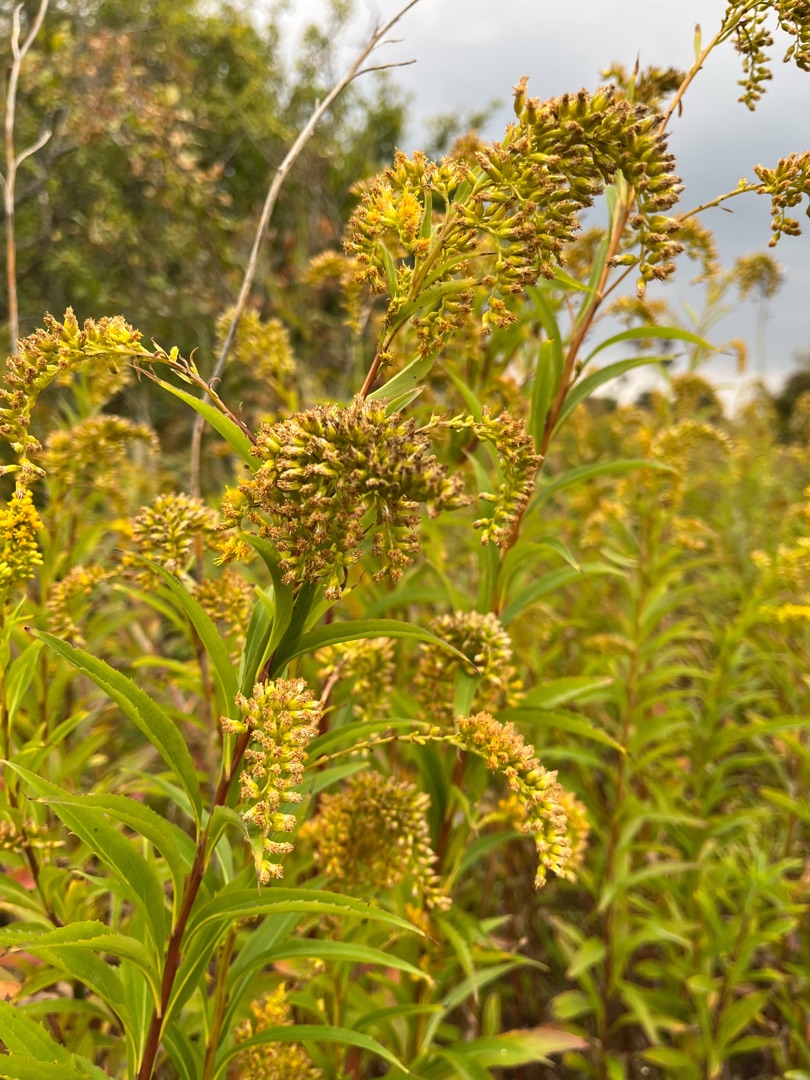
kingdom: Plantae
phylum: Tracheophyta
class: Magnoliopsida
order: Asterales
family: Asteraceae
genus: Solidago
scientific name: Solidago gigantea
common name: Sildig gyldenris
